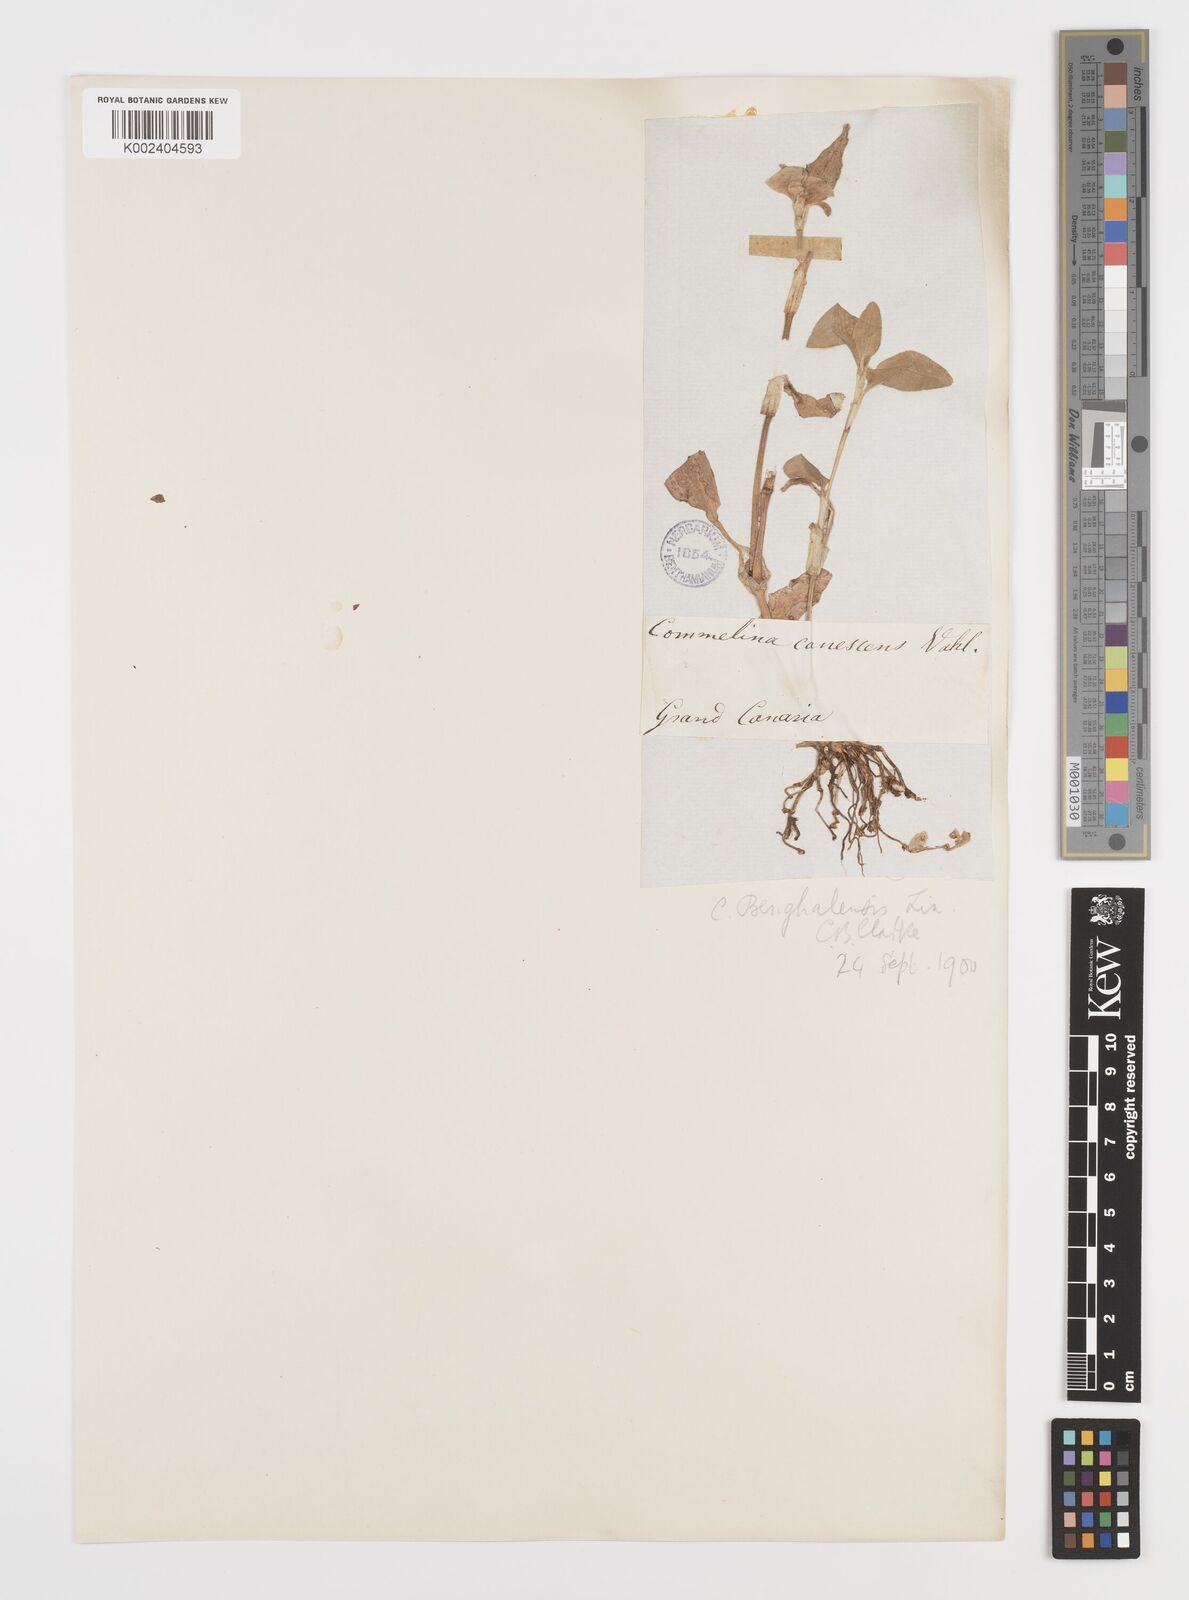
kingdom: Plantae
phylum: Tracheophyta
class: Liliopsida
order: Commelinales
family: Commelinaceae
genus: Commelina
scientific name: Commelina benghalensis
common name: Jio
